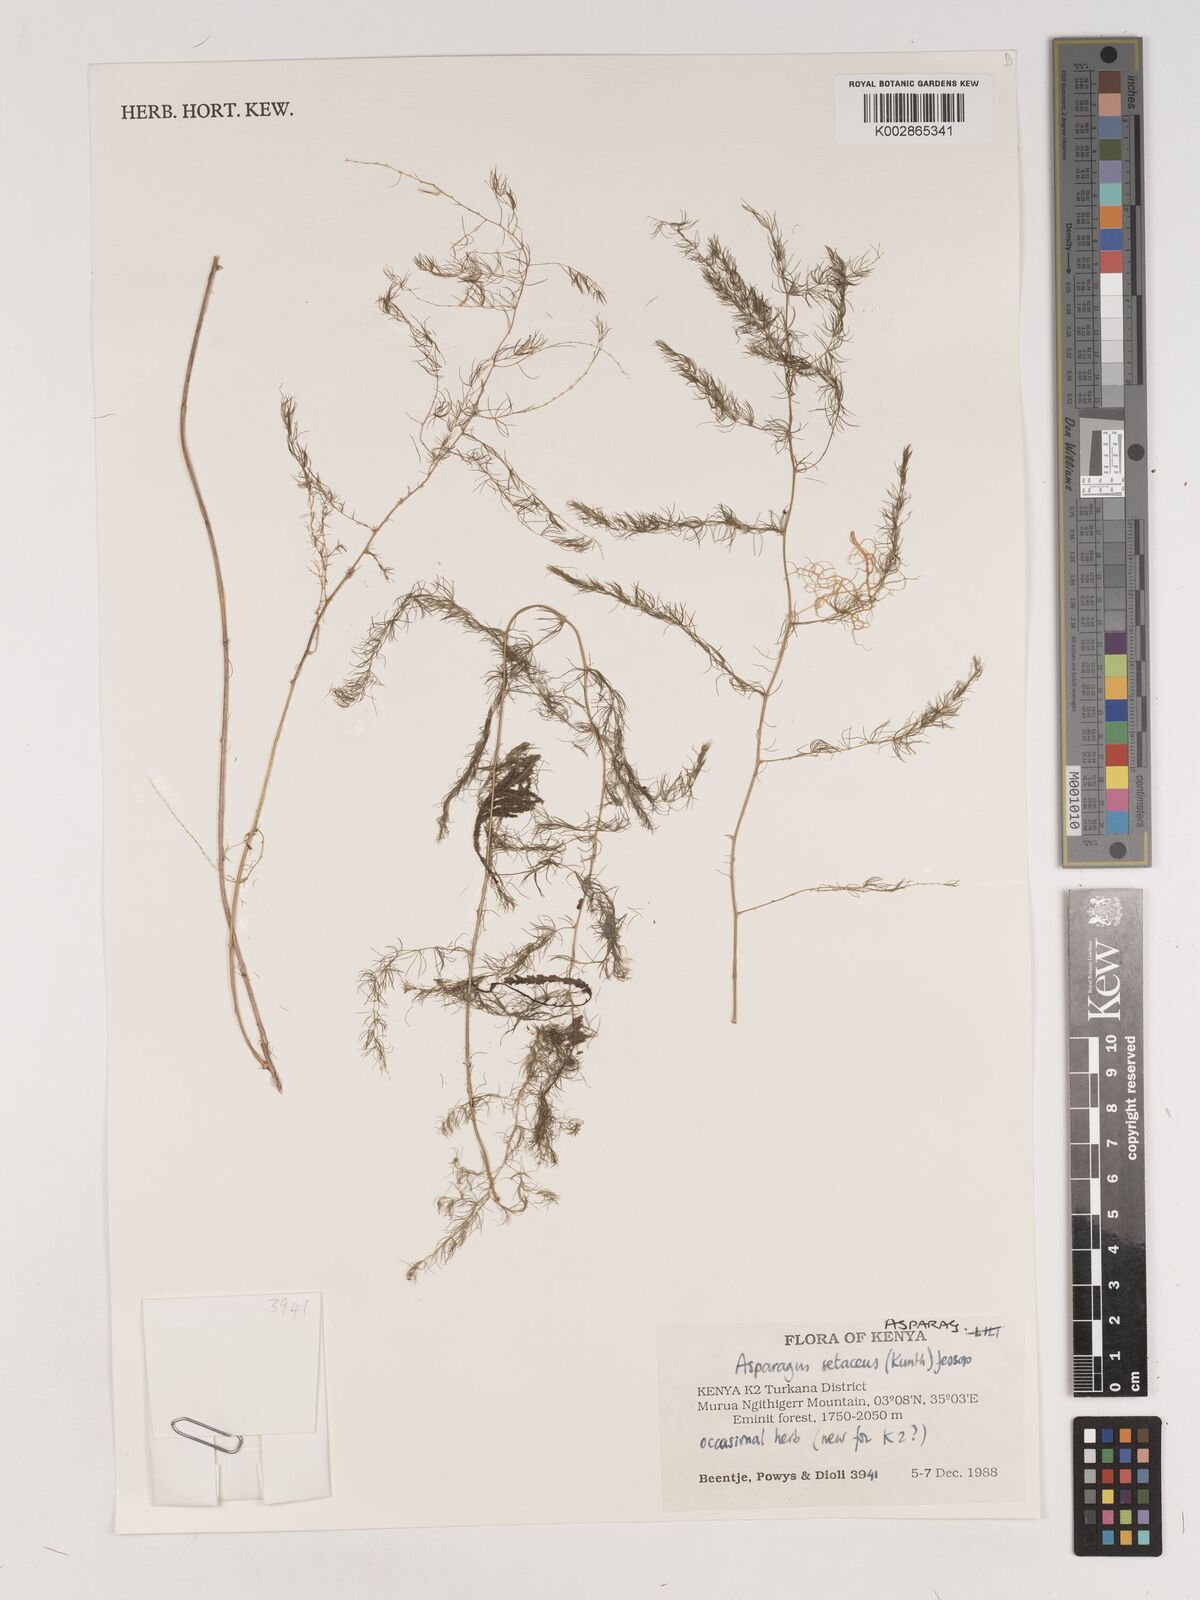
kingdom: Plantae
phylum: Tracheophyta
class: Liliopsida
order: Asparagales
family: Asparagaceae
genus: Asparagus
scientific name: Asparagus
